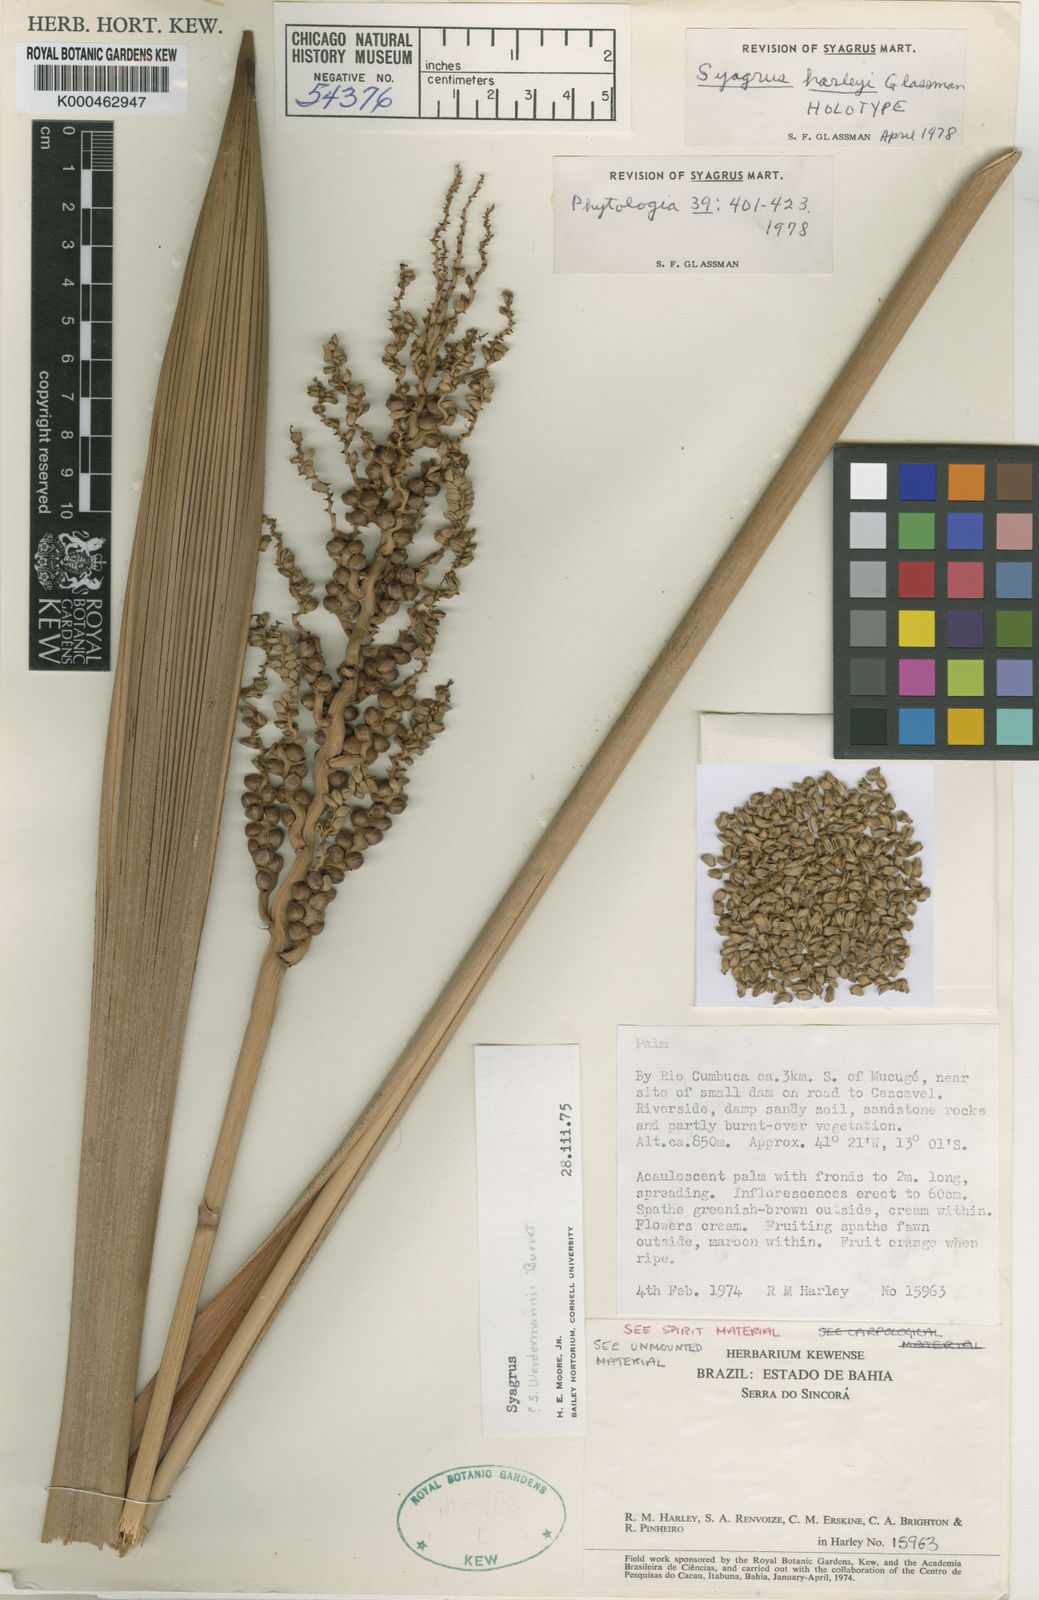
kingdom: Plantae
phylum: Tracheophyta
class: Liliopsida
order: Arecales
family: Arecaceae
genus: Syagrus
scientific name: Syagrus harleyi
